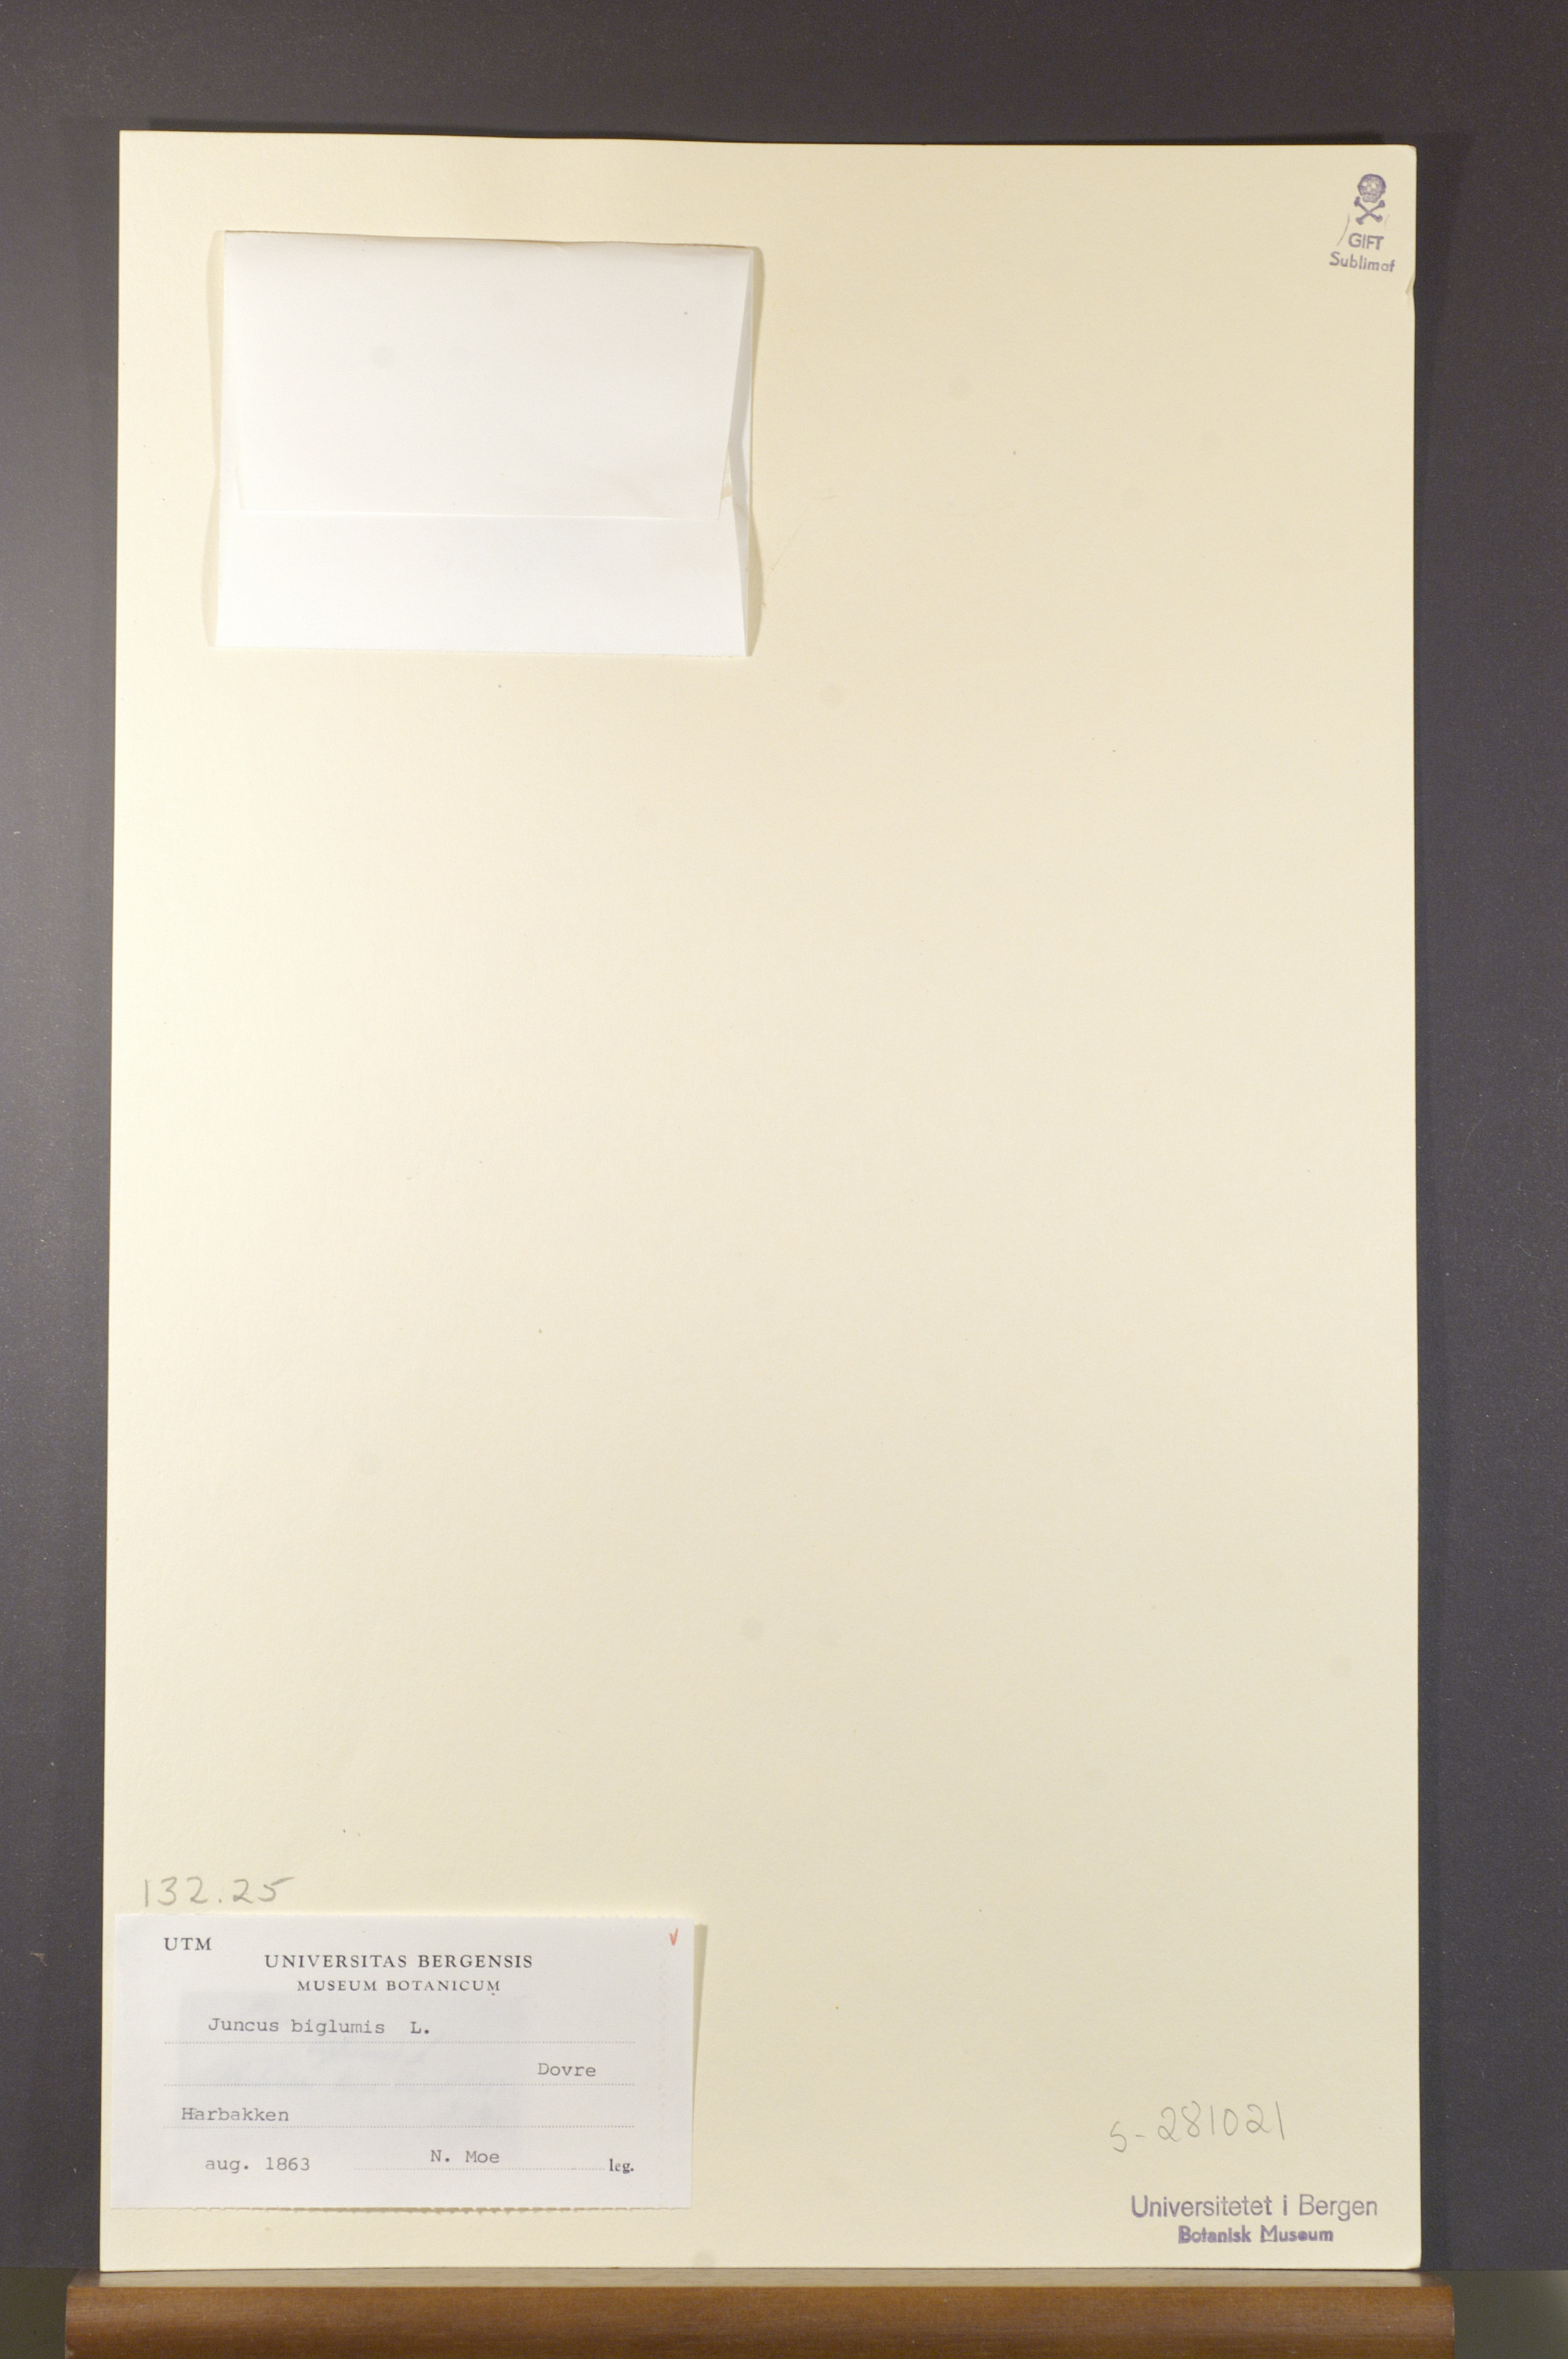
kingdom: Plantae
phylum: Tracheophyta
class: Liliopsida
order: Poales
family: Juncaceae
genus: Juncus
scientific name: Juncus biglumis
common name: Two-flowered rush
